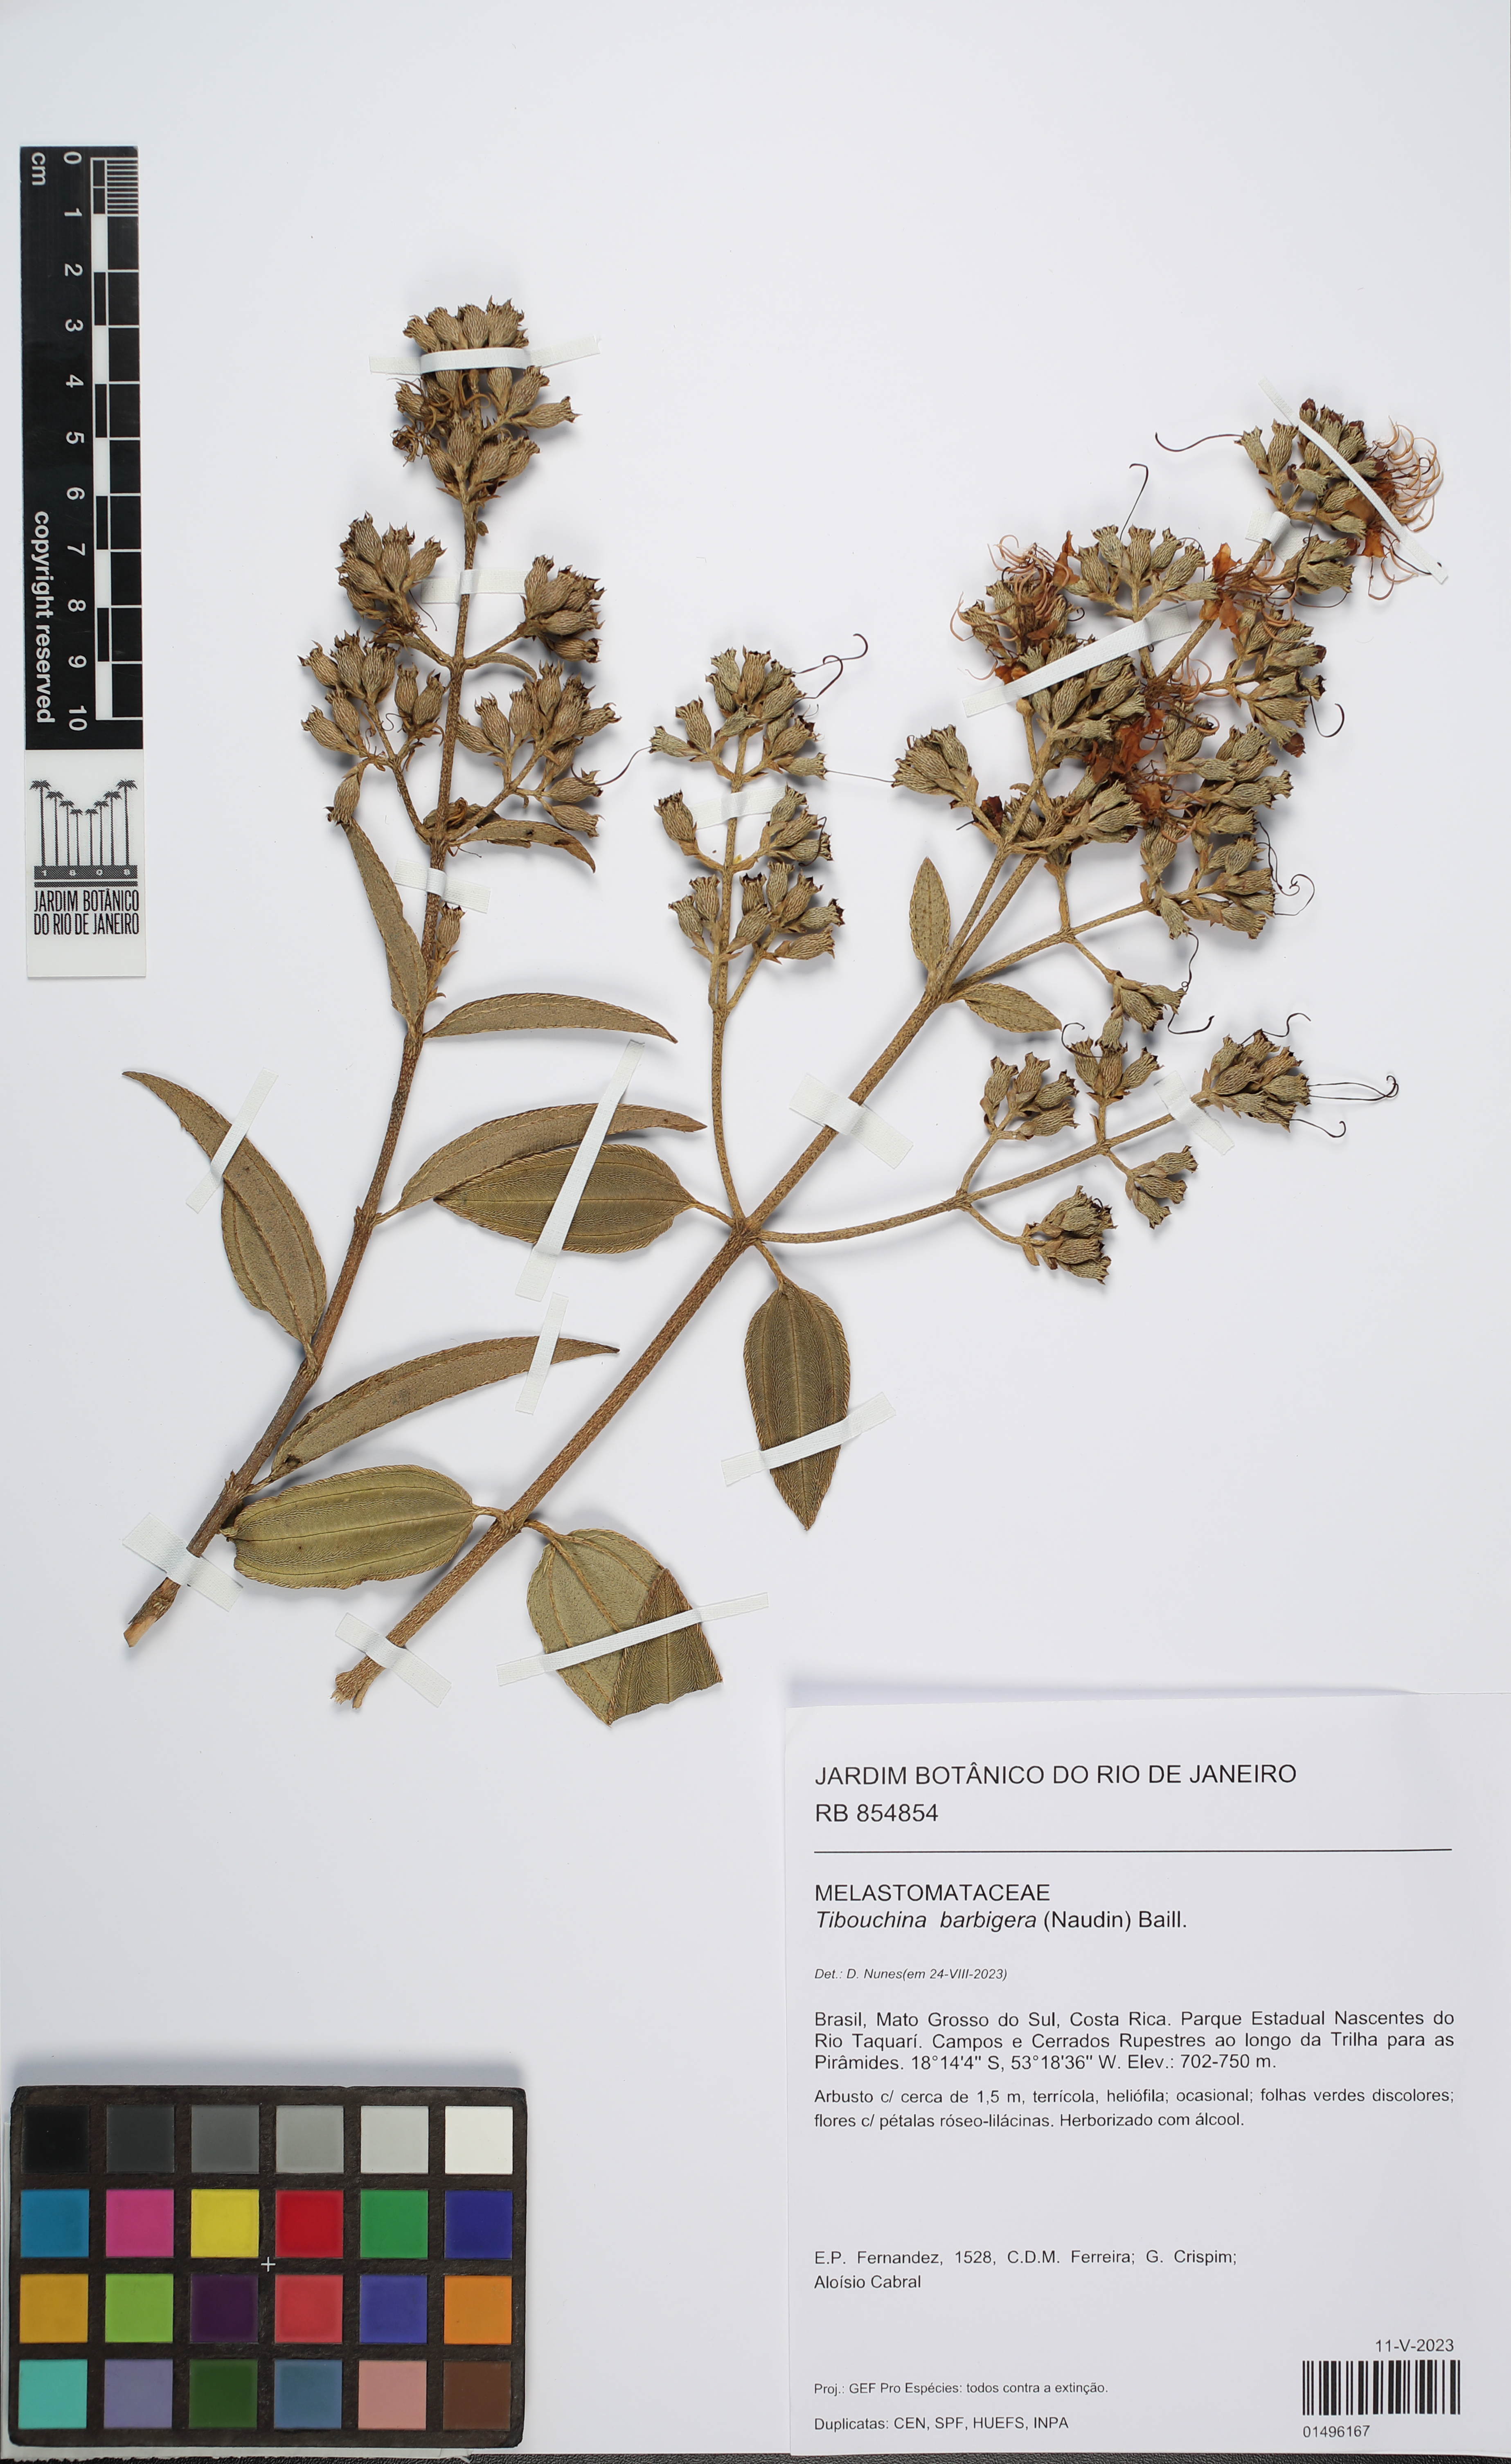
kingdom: Plantae
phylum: Tracheophyta
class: Magnoliopsida
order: Myrtales
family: Melastomataceae
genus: Pleroma
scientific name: Pleroma barbigerum
